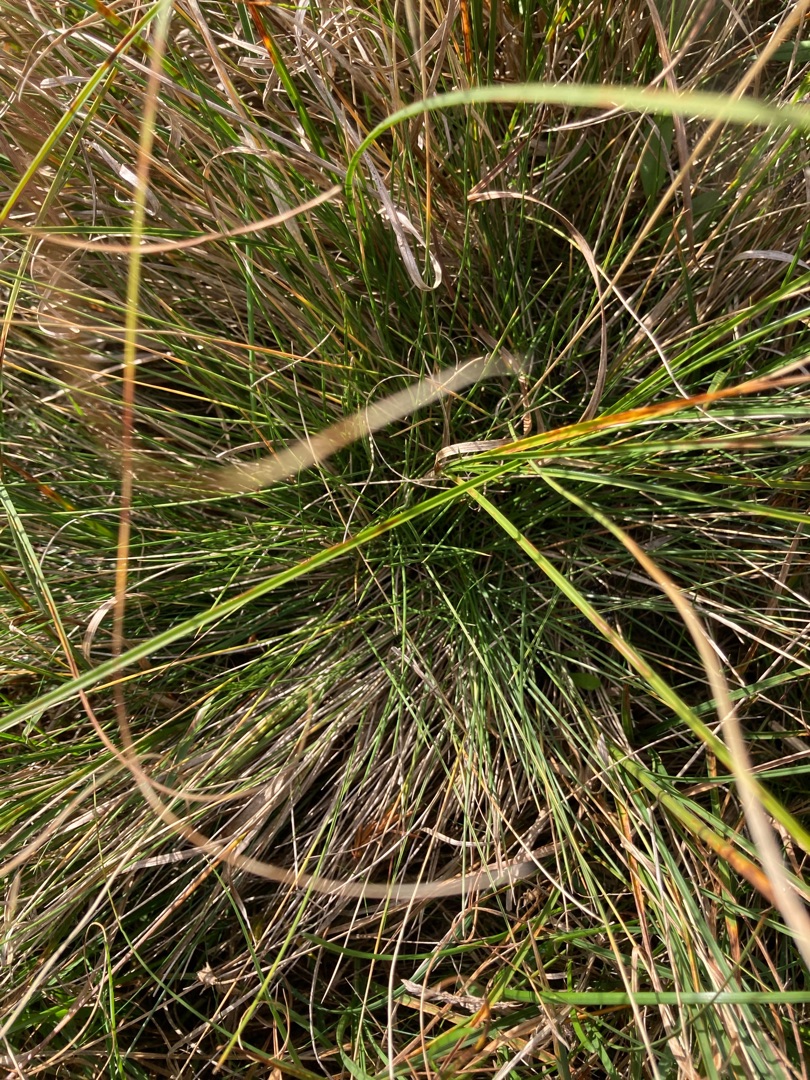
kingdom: Plantae
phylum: Tracheophyta
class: Liliopsida
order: Poales
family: Poaceae
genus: Nardus
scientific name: Nardus stricta
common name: Katteskæg
